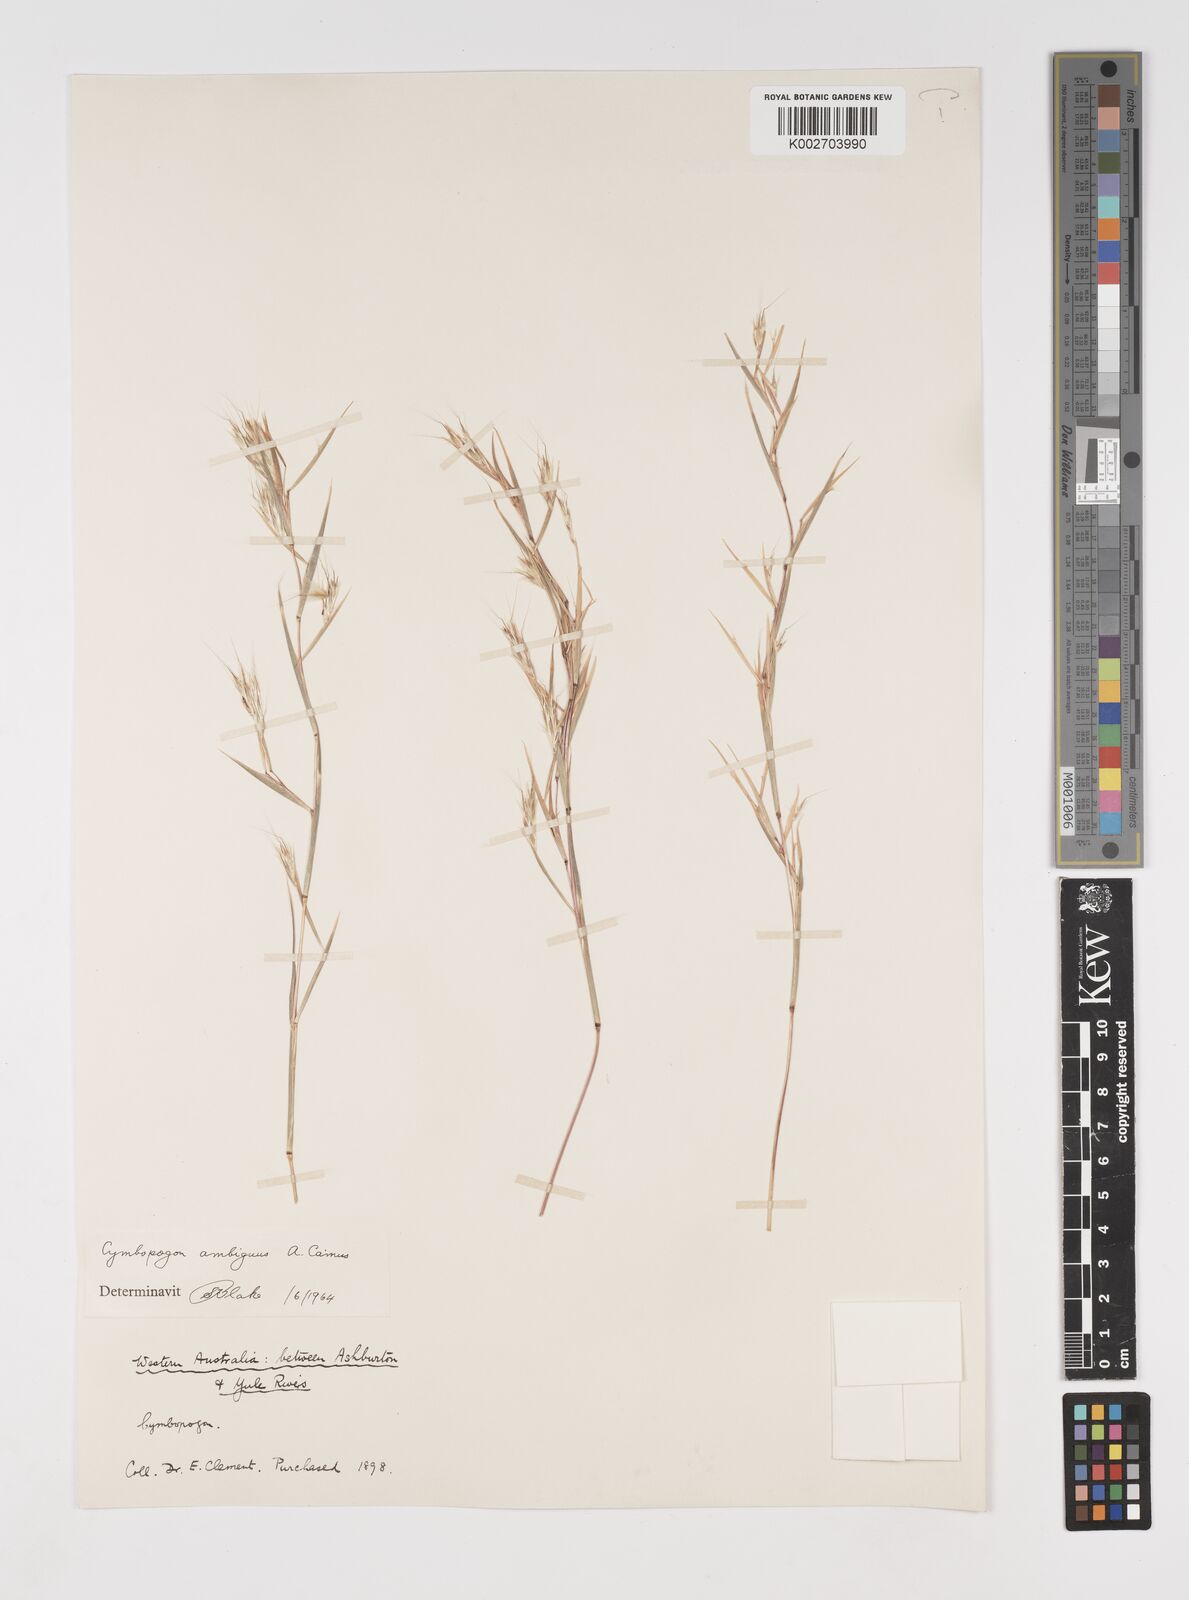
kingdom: Plantae
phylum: Tracheophyta
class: Liliopsida
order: Poales
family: Poaceae
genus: Cymbopogon
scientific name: Cymbopogon ambiguus
